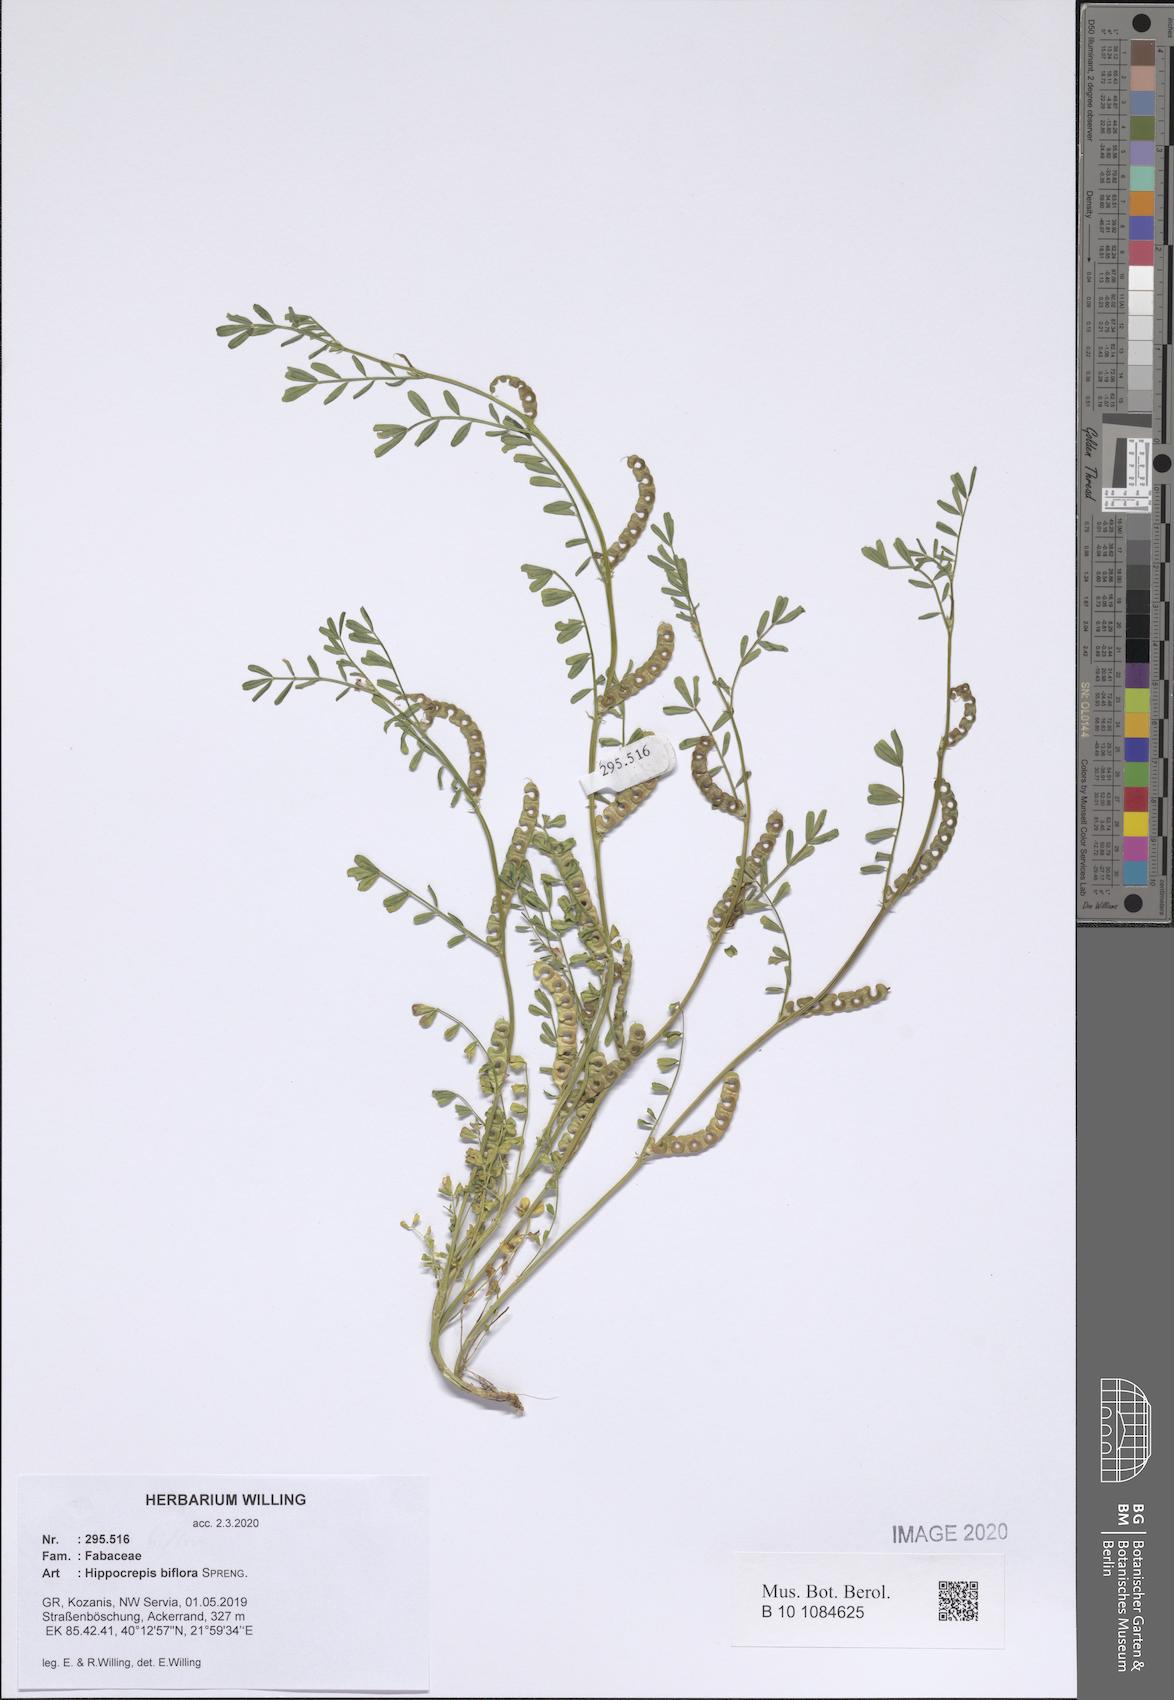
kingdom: Plantae
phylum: Tracheophyta
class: Magnoliopsida
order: Fabales
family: Fabaceae
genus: Hippocrepis
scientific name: Hippocrepis biflora
